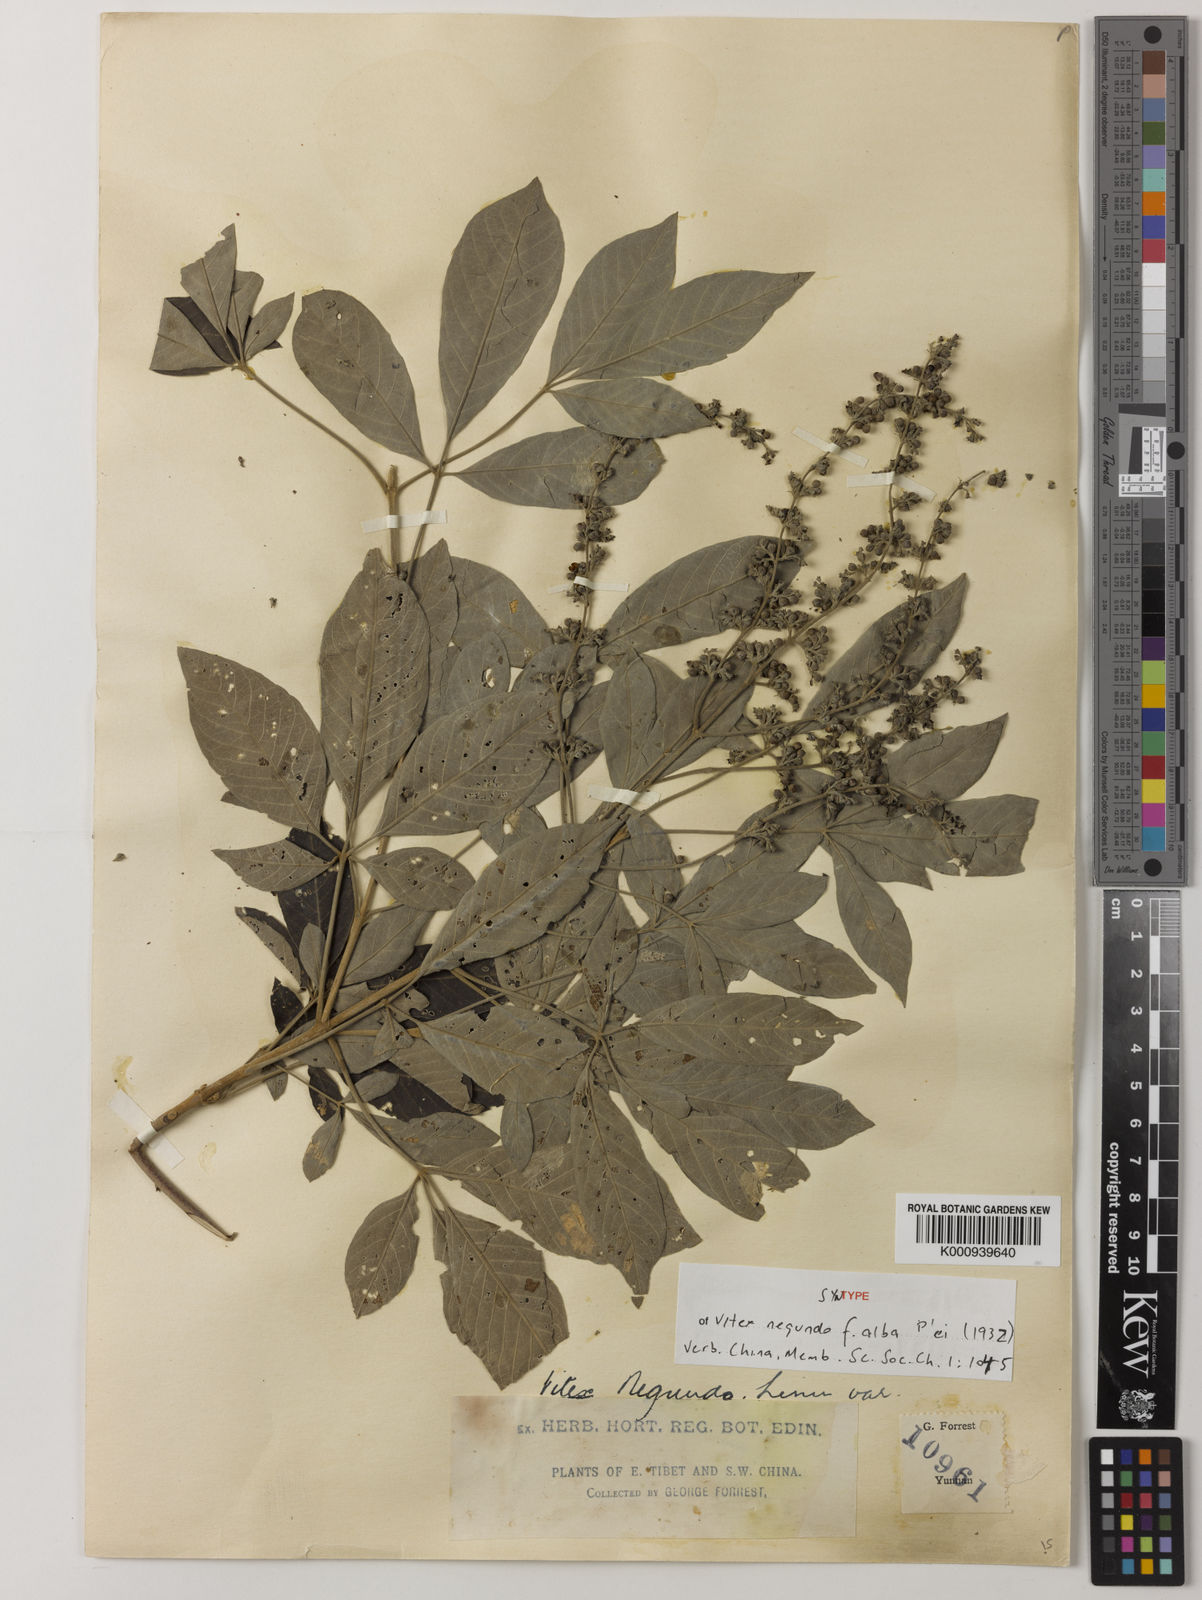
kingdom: Plantae
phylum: Tracheophyta
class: Magnoliopsida
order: Lamiales
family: Lamiaceae
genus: Vitex
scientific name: Vitex negundo
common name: Chinese chastetree
